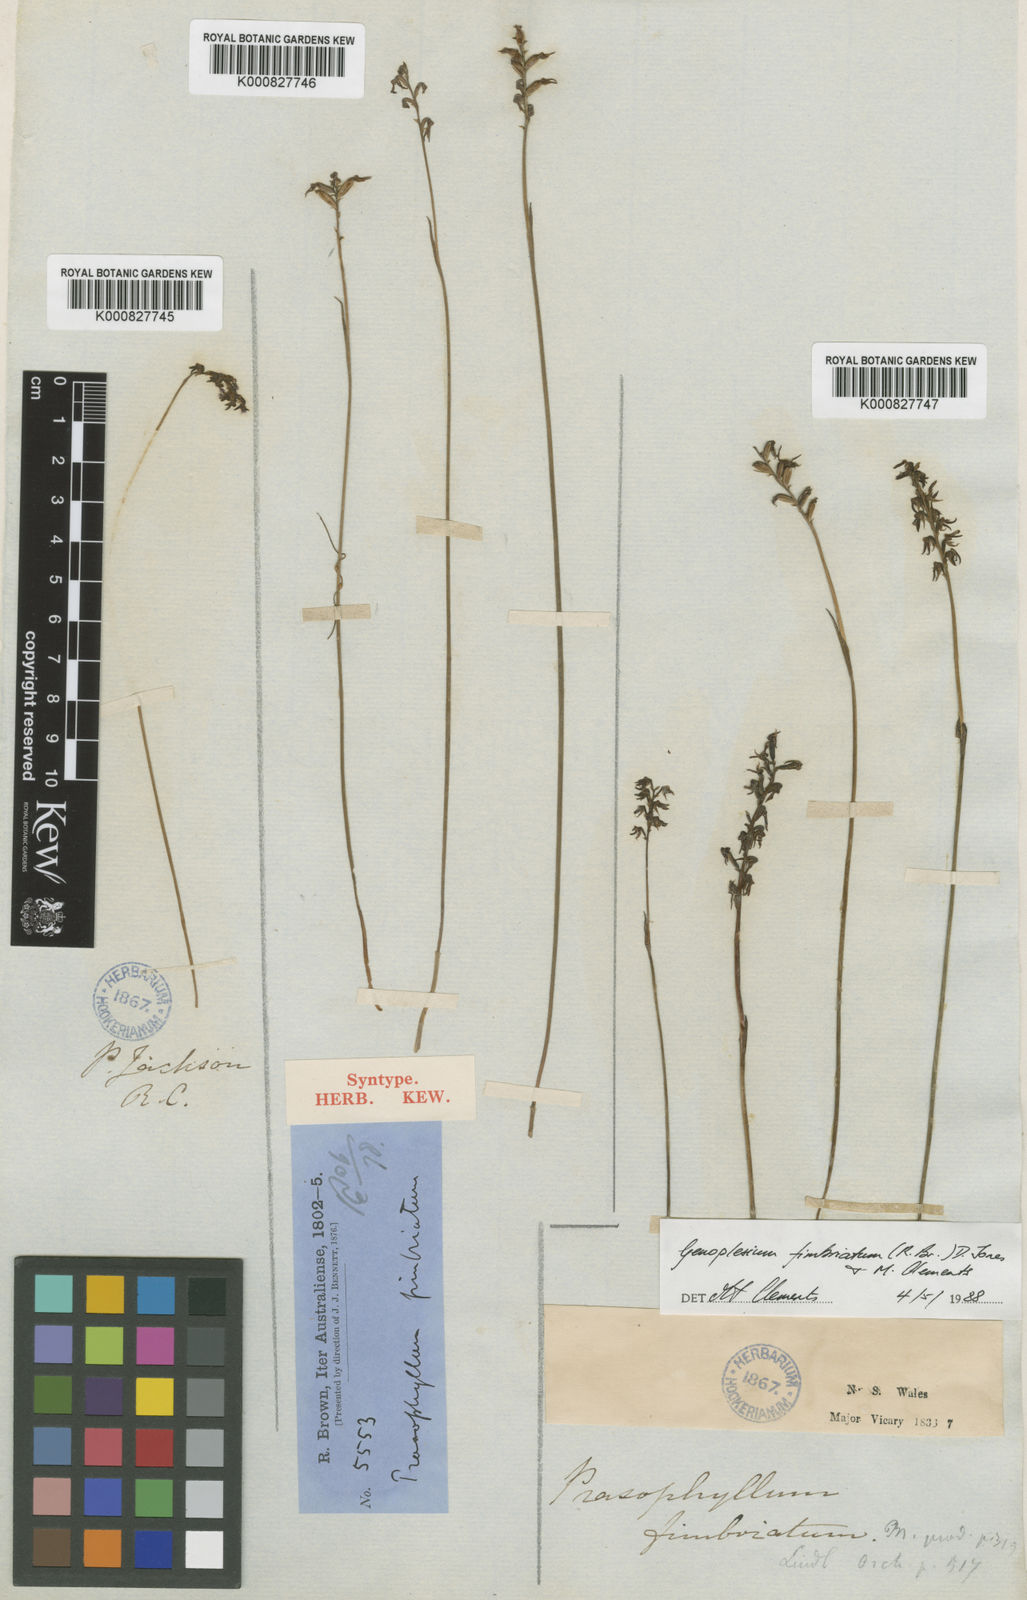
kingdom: Plantae
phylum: Tracheophyta
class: Liliopsida
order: Asparagales
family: Orchidaceae
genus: Genoplesium
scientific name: Genoplesium fimbriatum
